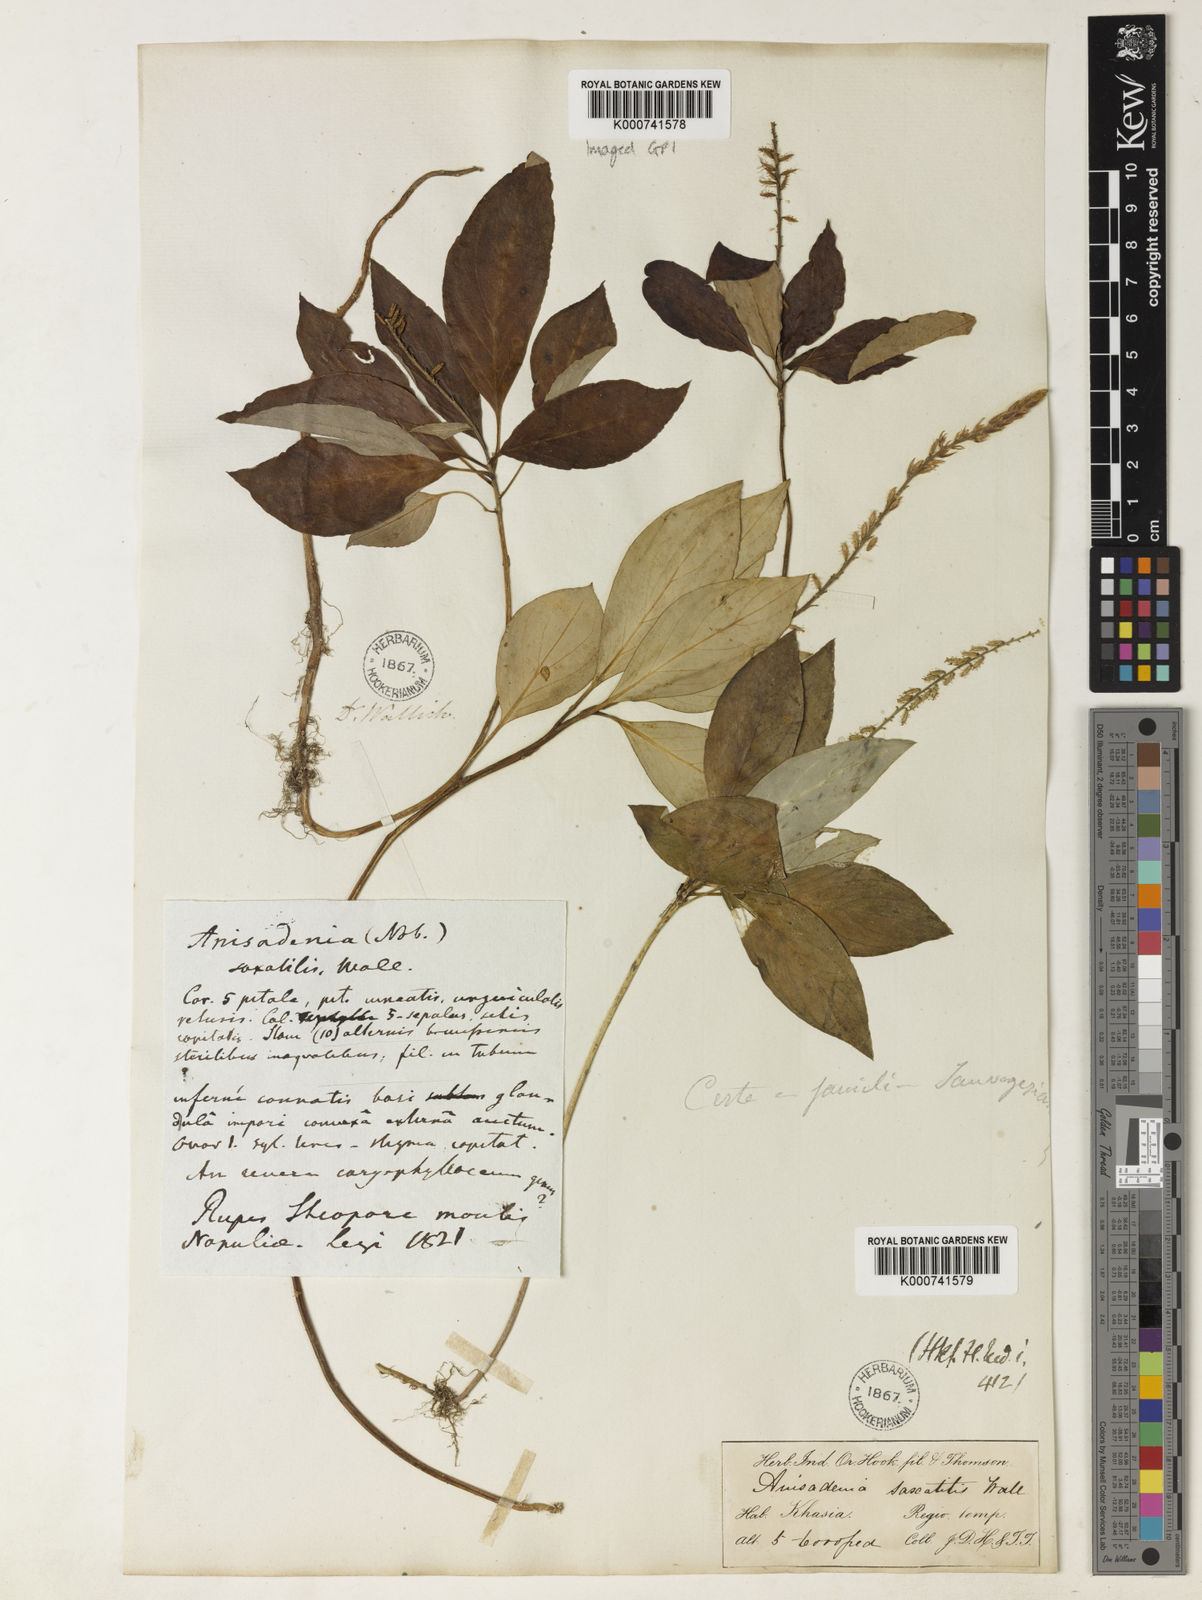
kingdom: Plantae
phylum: Tracheophyta
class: Magnoliopsida
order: Malpighiales
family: Linaceae
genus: Anisadenia
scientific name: Anisadenia
